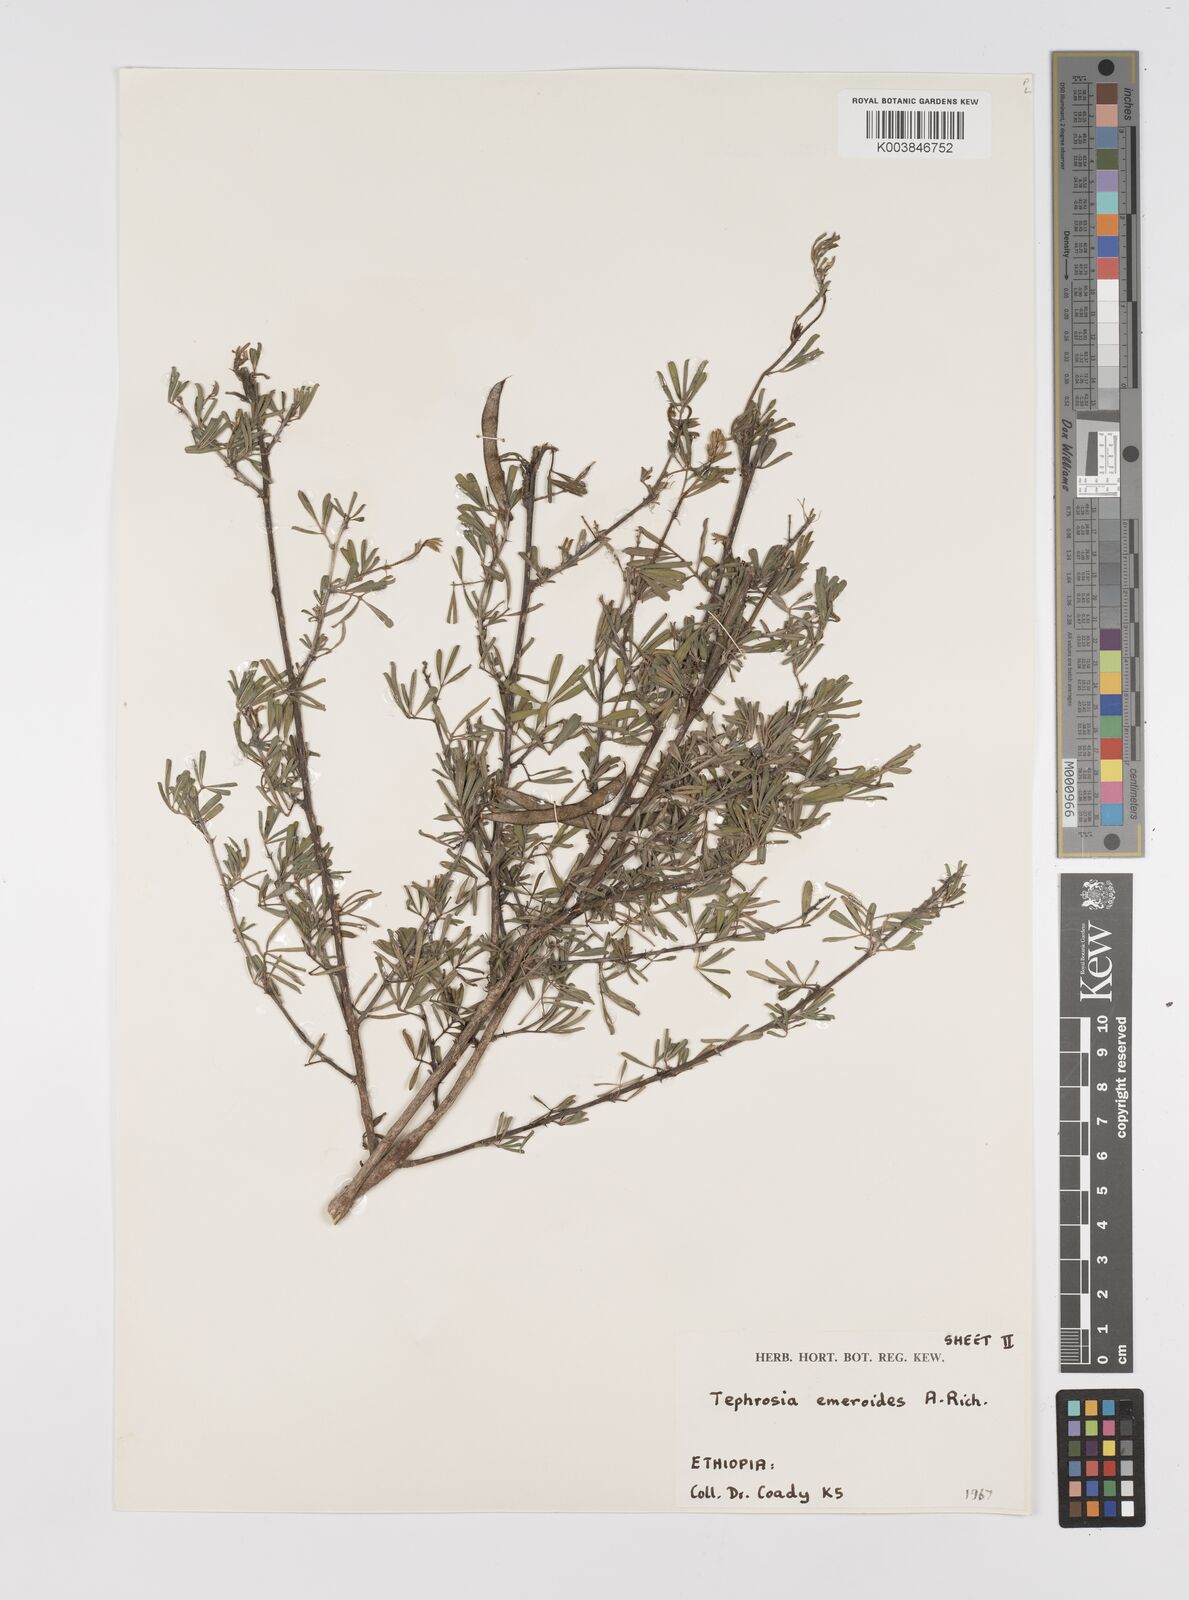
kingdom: Plantae
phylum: Tracheophyta
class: Magnoliopsida
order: Fabales
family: Fabaceae
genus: Tephrosia
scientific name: Tephrosia emeroides
